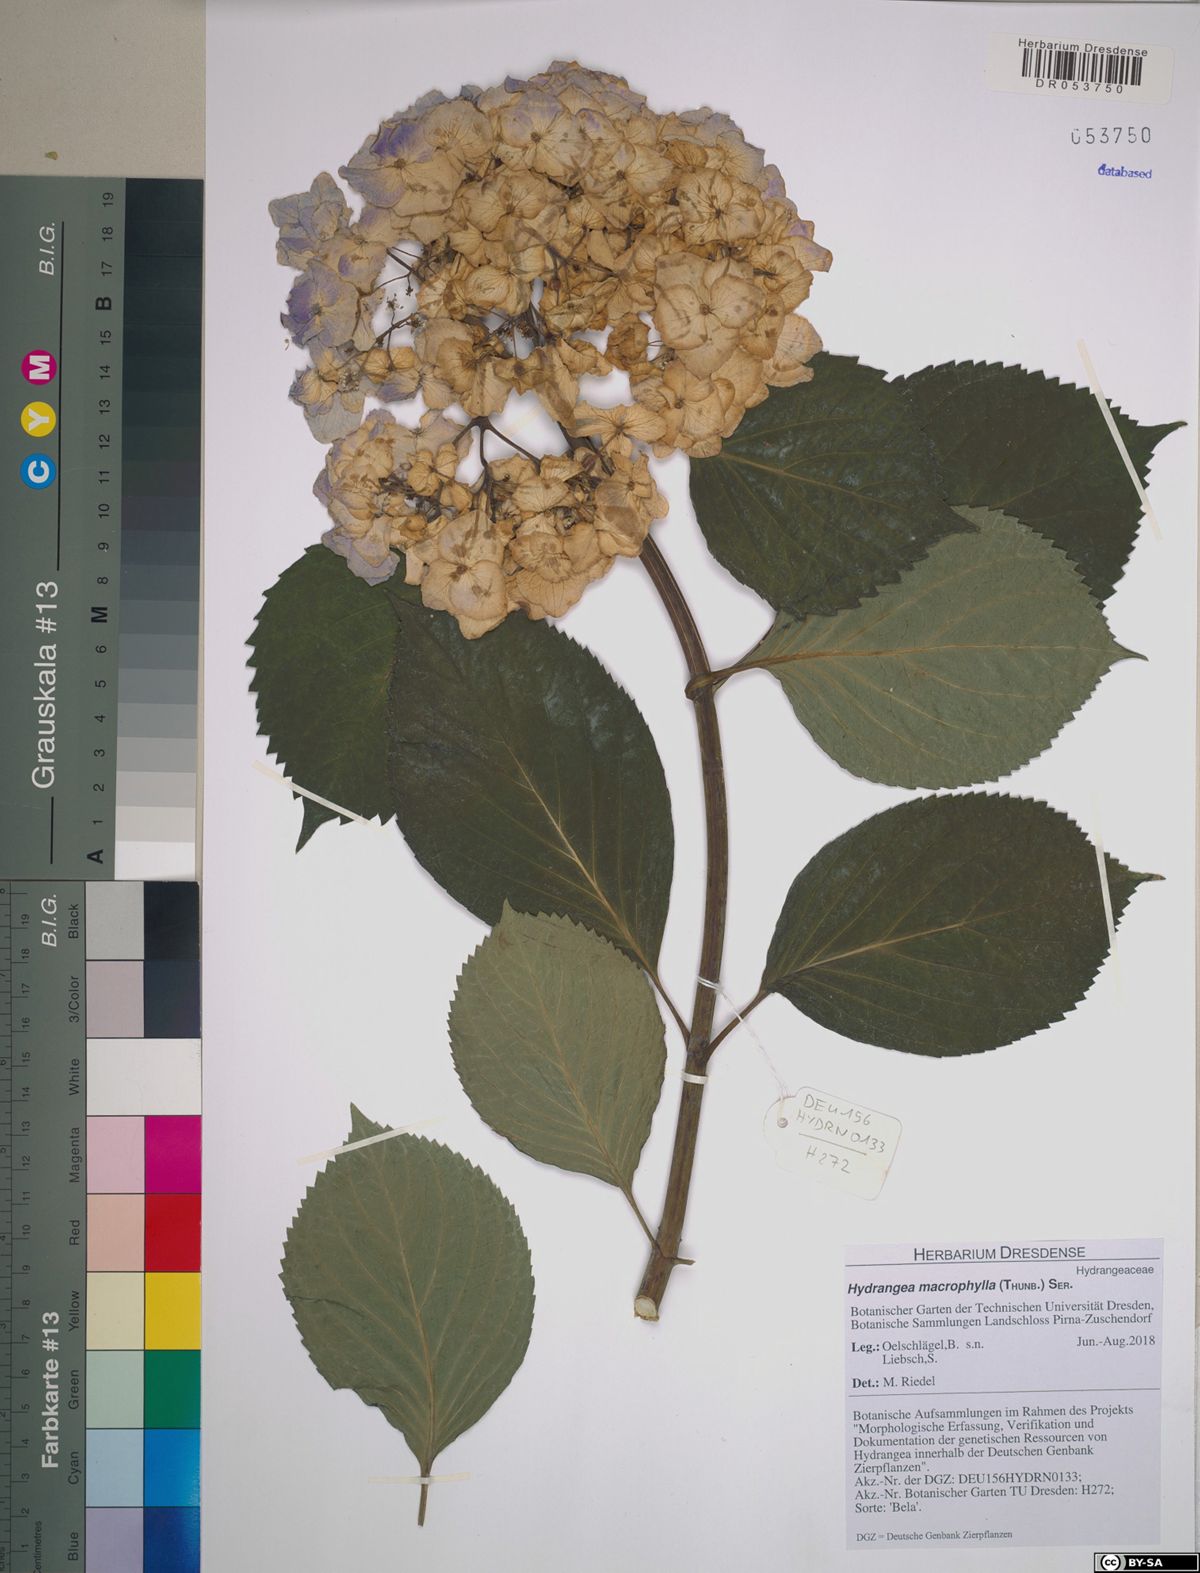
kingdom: Plantae
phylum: Tracheophyta
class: Magnoliopsida
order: Cornales
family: Hydrangeaceae
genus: Hydrangea
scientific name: Hydrangea macrophylla
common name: Hydrangea
